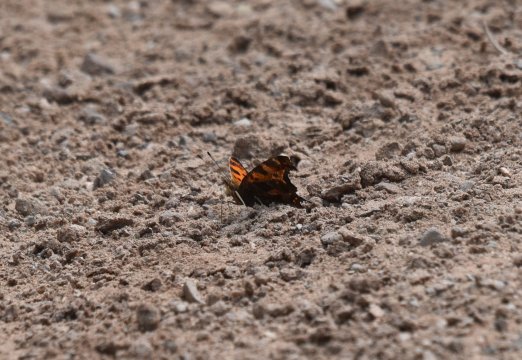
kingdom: Animalia
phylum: Arthropoda
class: Insecta
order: Lepidoptera
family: Nymphalidae
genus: Polygonia
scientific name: Polygonia comma
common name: Eastern Comma
